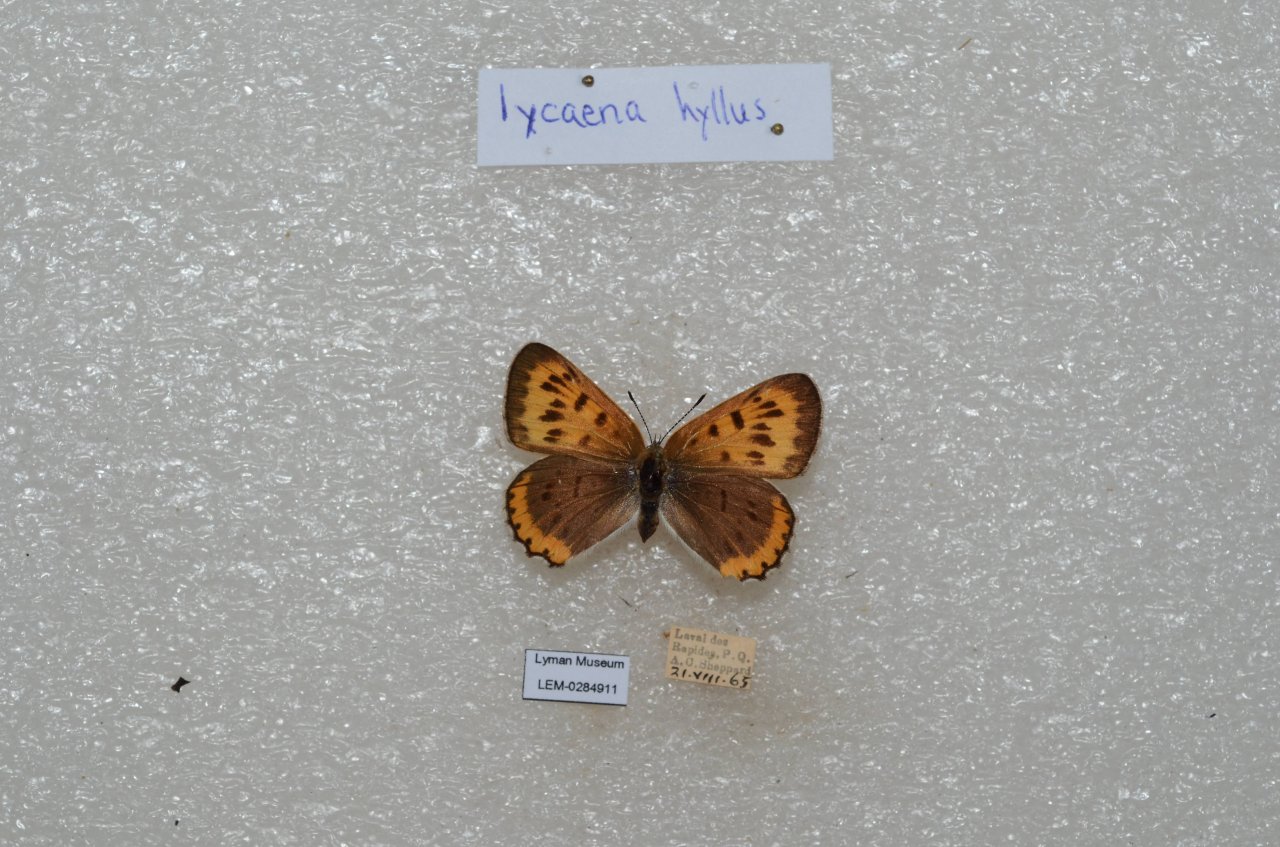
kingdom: Animalia
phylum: Arthropoda
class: Insecta
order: Lepidoptera
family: Sesiidae
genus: Sesia
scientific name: Sesia Lycaena hyllus
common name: Bronze Copper
